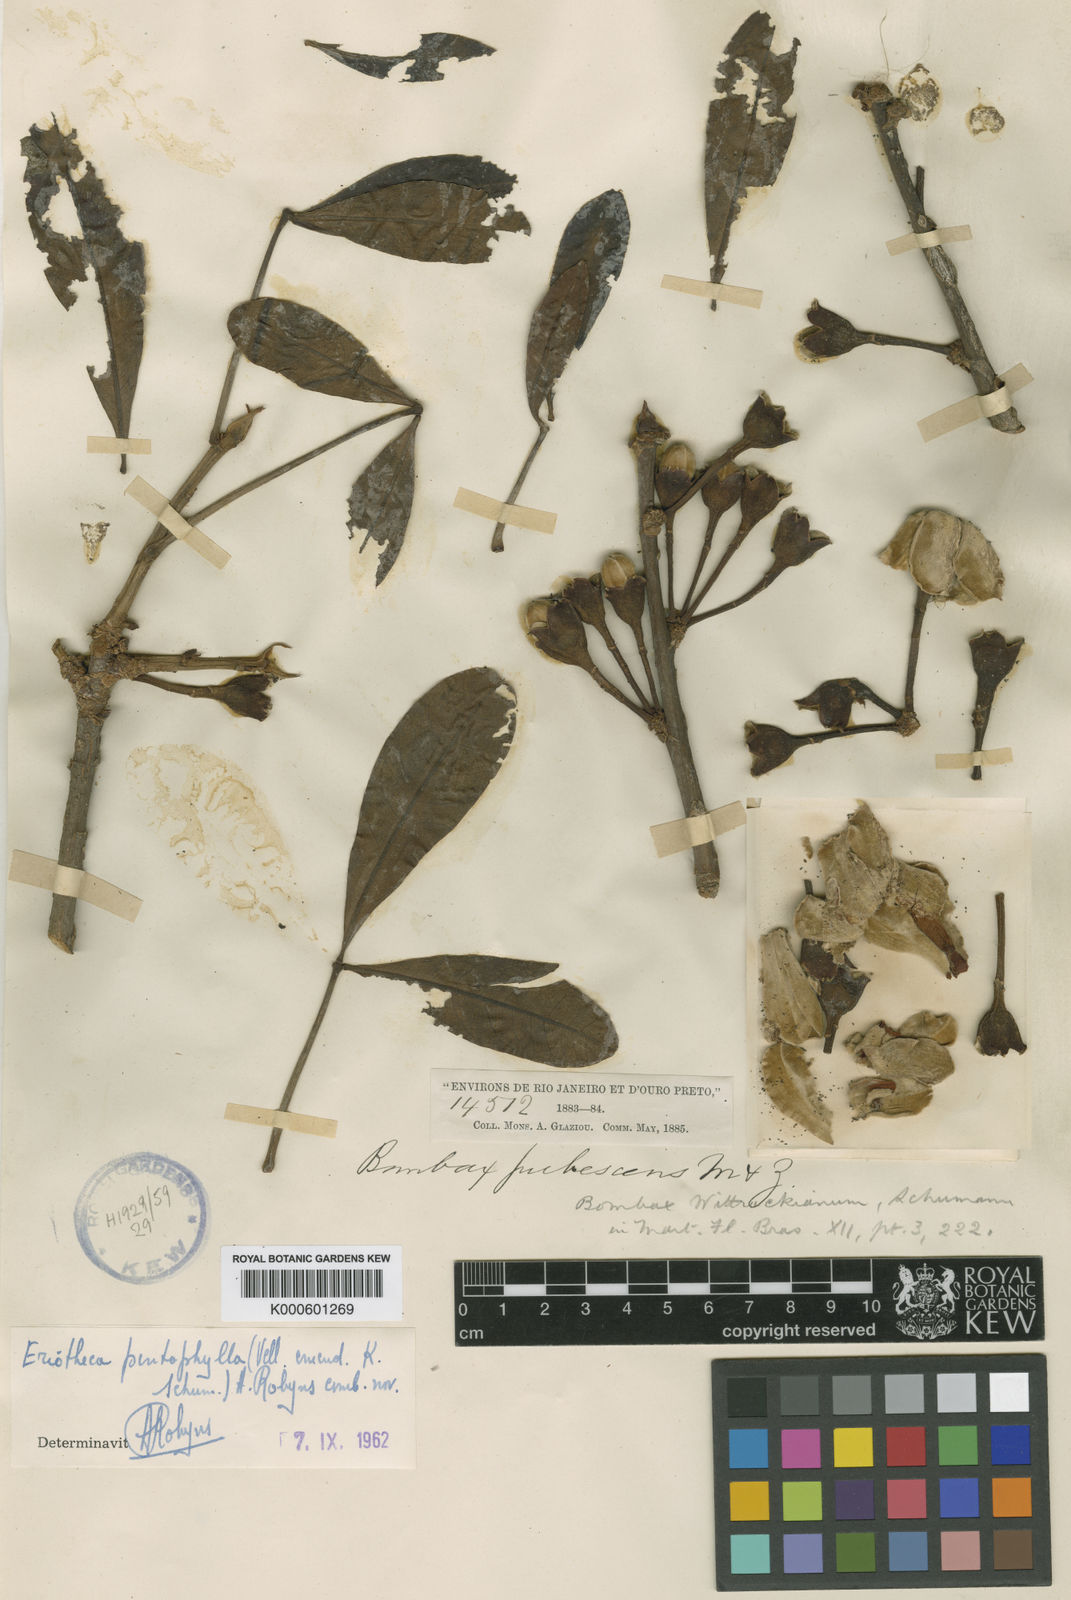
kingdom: Plantae
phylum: Tracheophyta
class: Magnoliopsida
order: Malvales
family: Malvaceae
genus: Eriotheca
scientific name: Eriotheca pentaphylla
